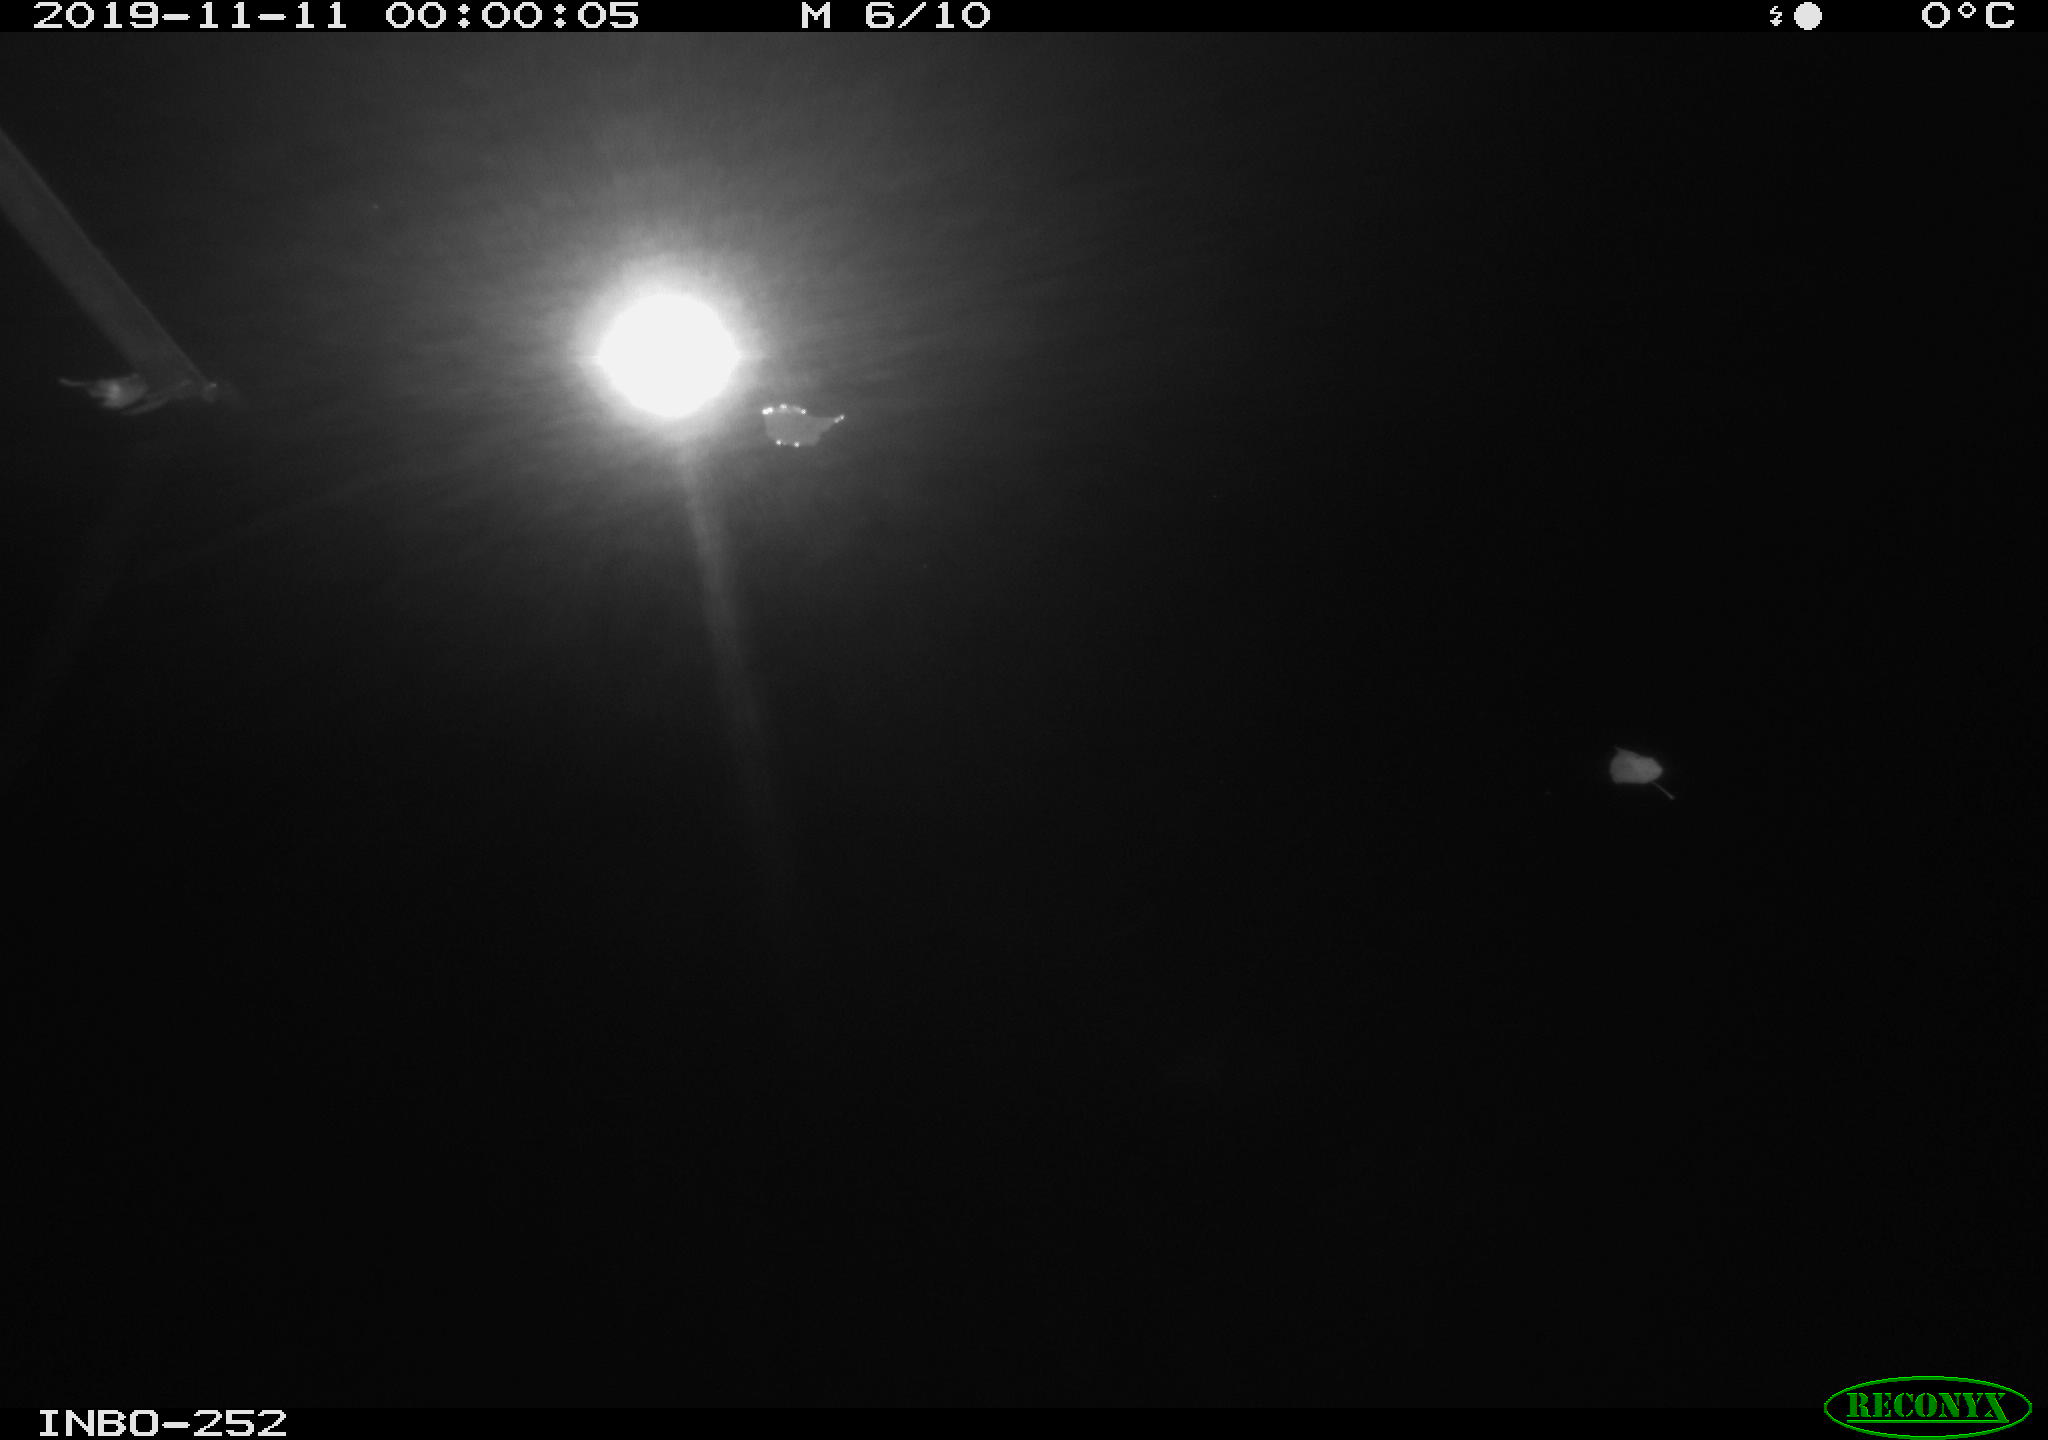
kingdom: Animalia
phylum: Chordata
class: Aves
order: Anseriformes
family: Anatidae
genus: Anas
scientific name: Anas platyrhynchos
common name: Mallard
